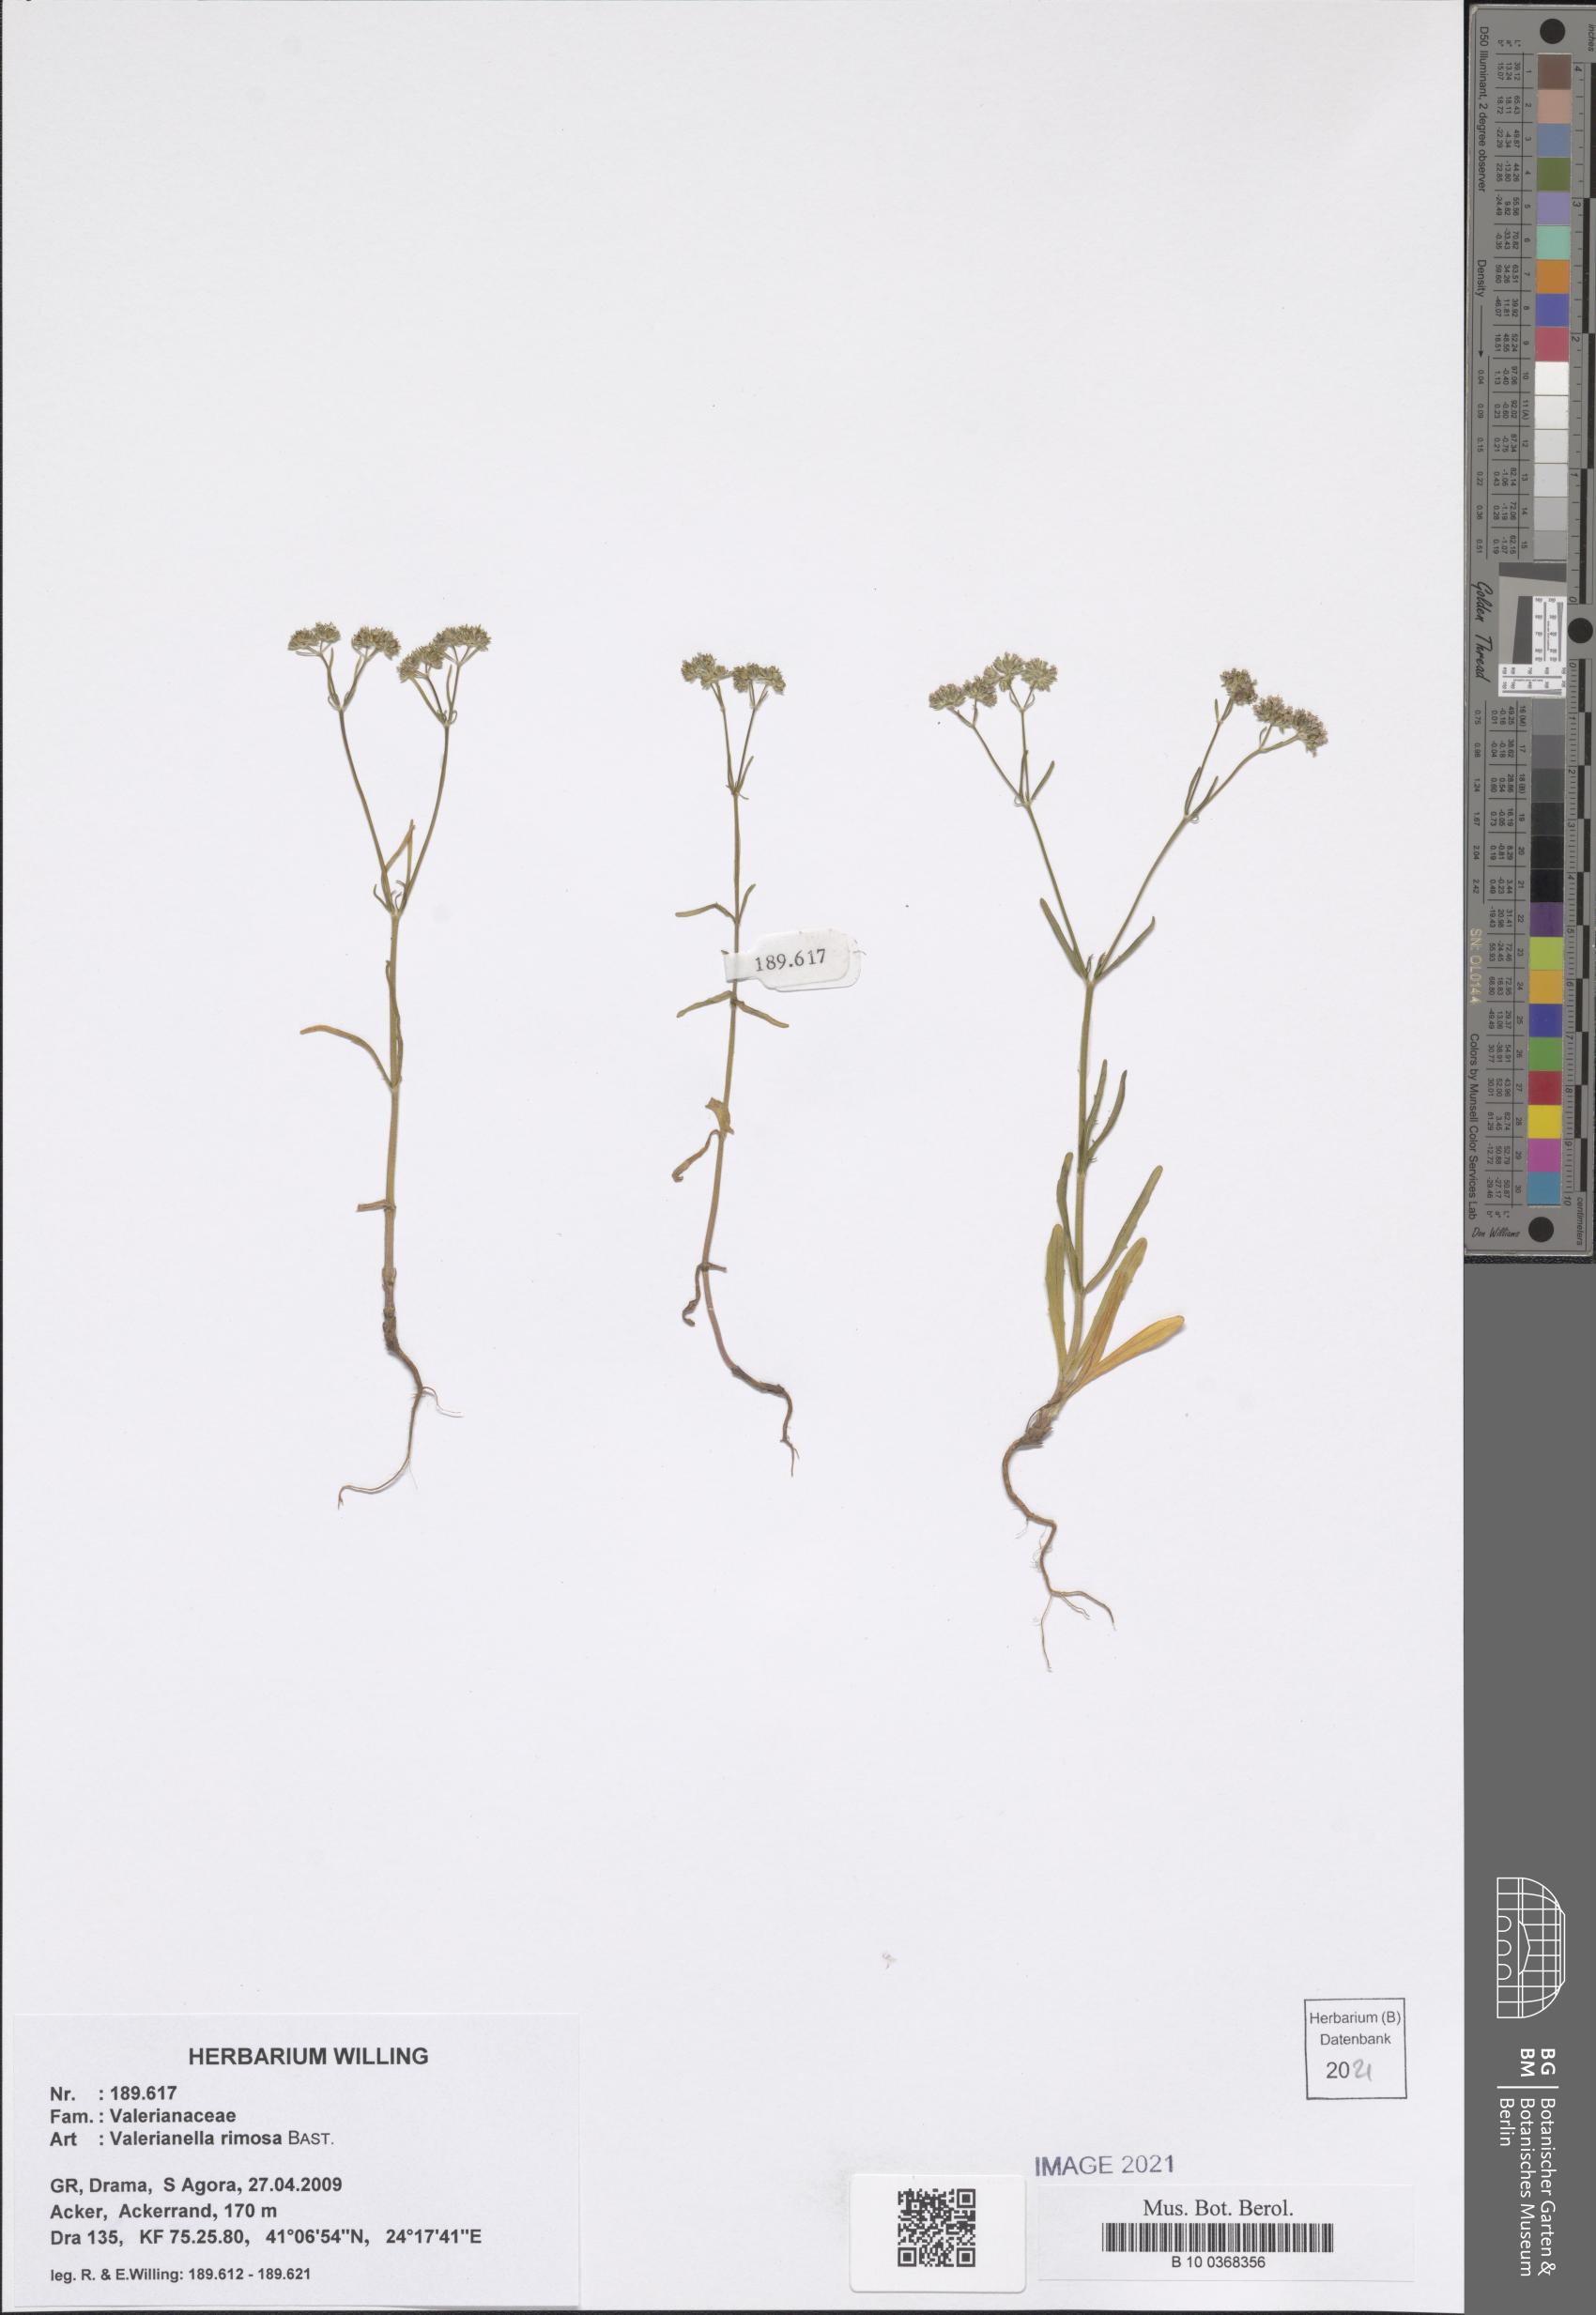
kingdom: Plantae
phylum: Tracheophyta
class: Magnoliopsida
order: Dipsacales
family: Caprifoliaceae
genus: Valerianella
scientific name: Valerianella rimosa
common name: Broad-fruited cornsalad
